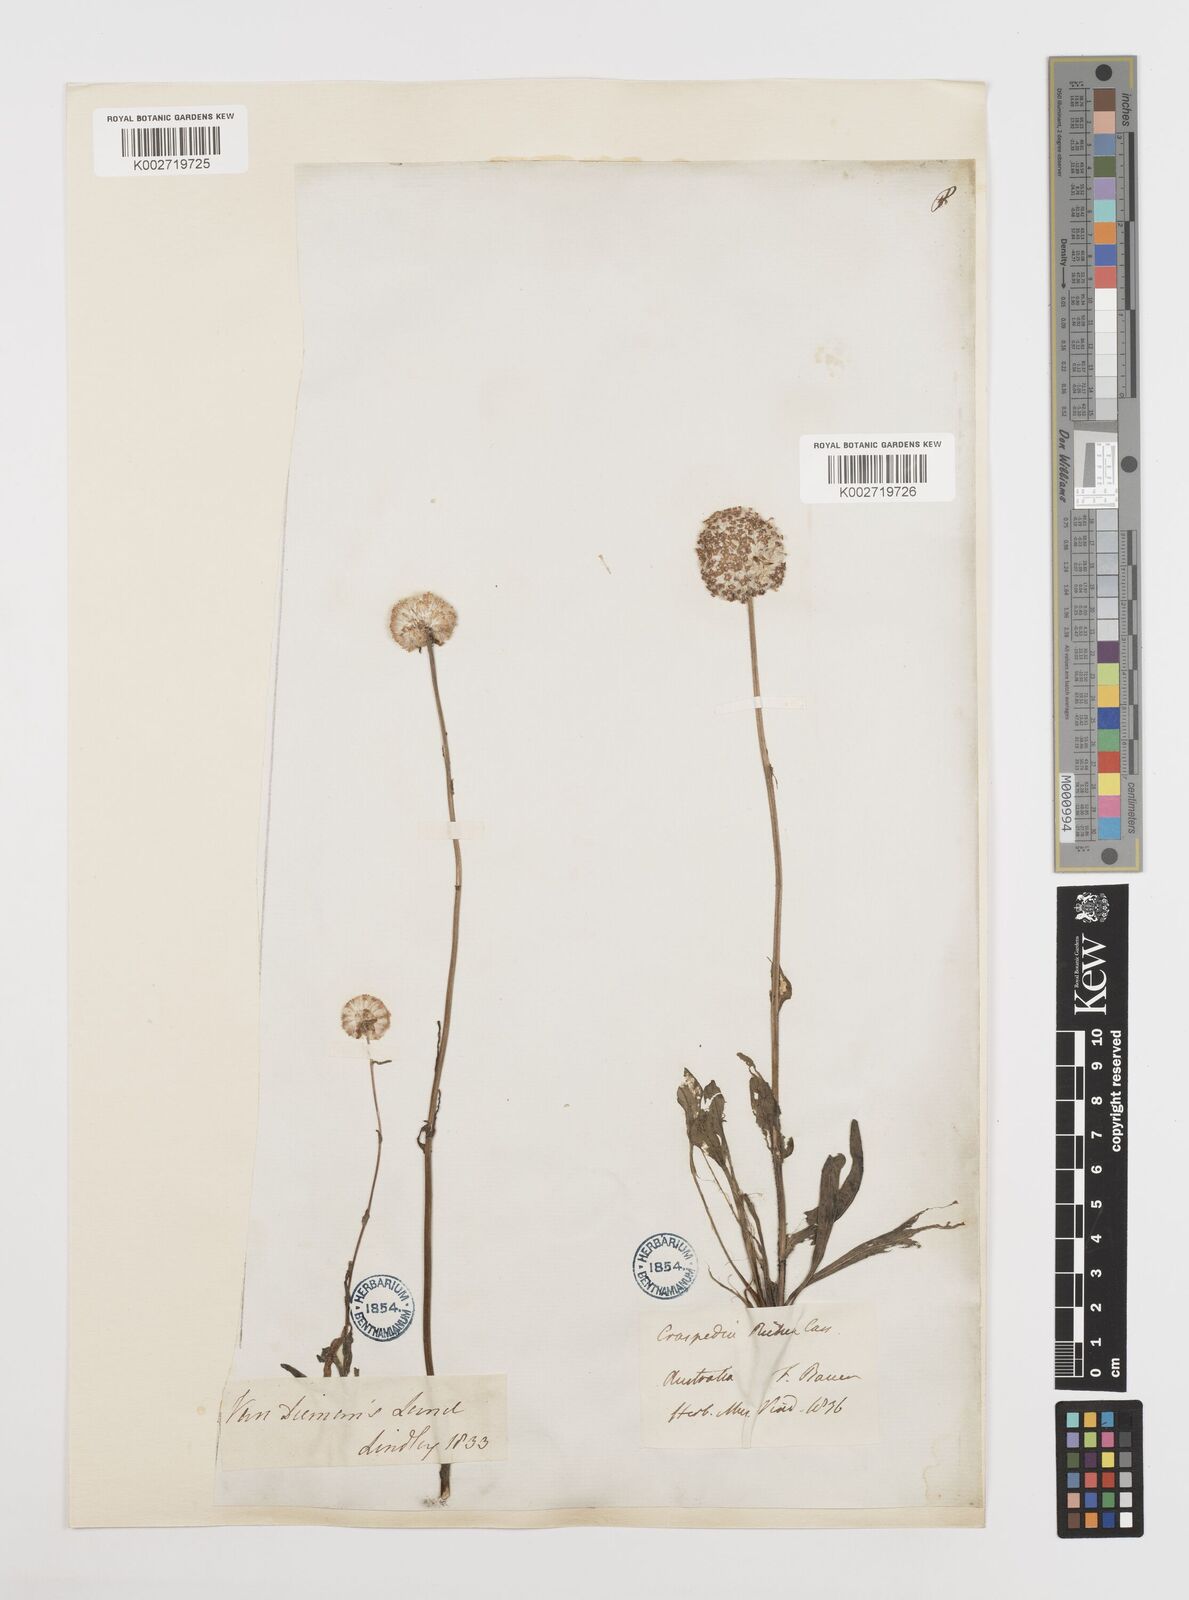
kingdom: Plantae
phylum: Tracheophyta
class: Magnoliopsida
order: Asterales
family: Asteraceae
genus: Craspedia
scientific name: Craspedia glauca
